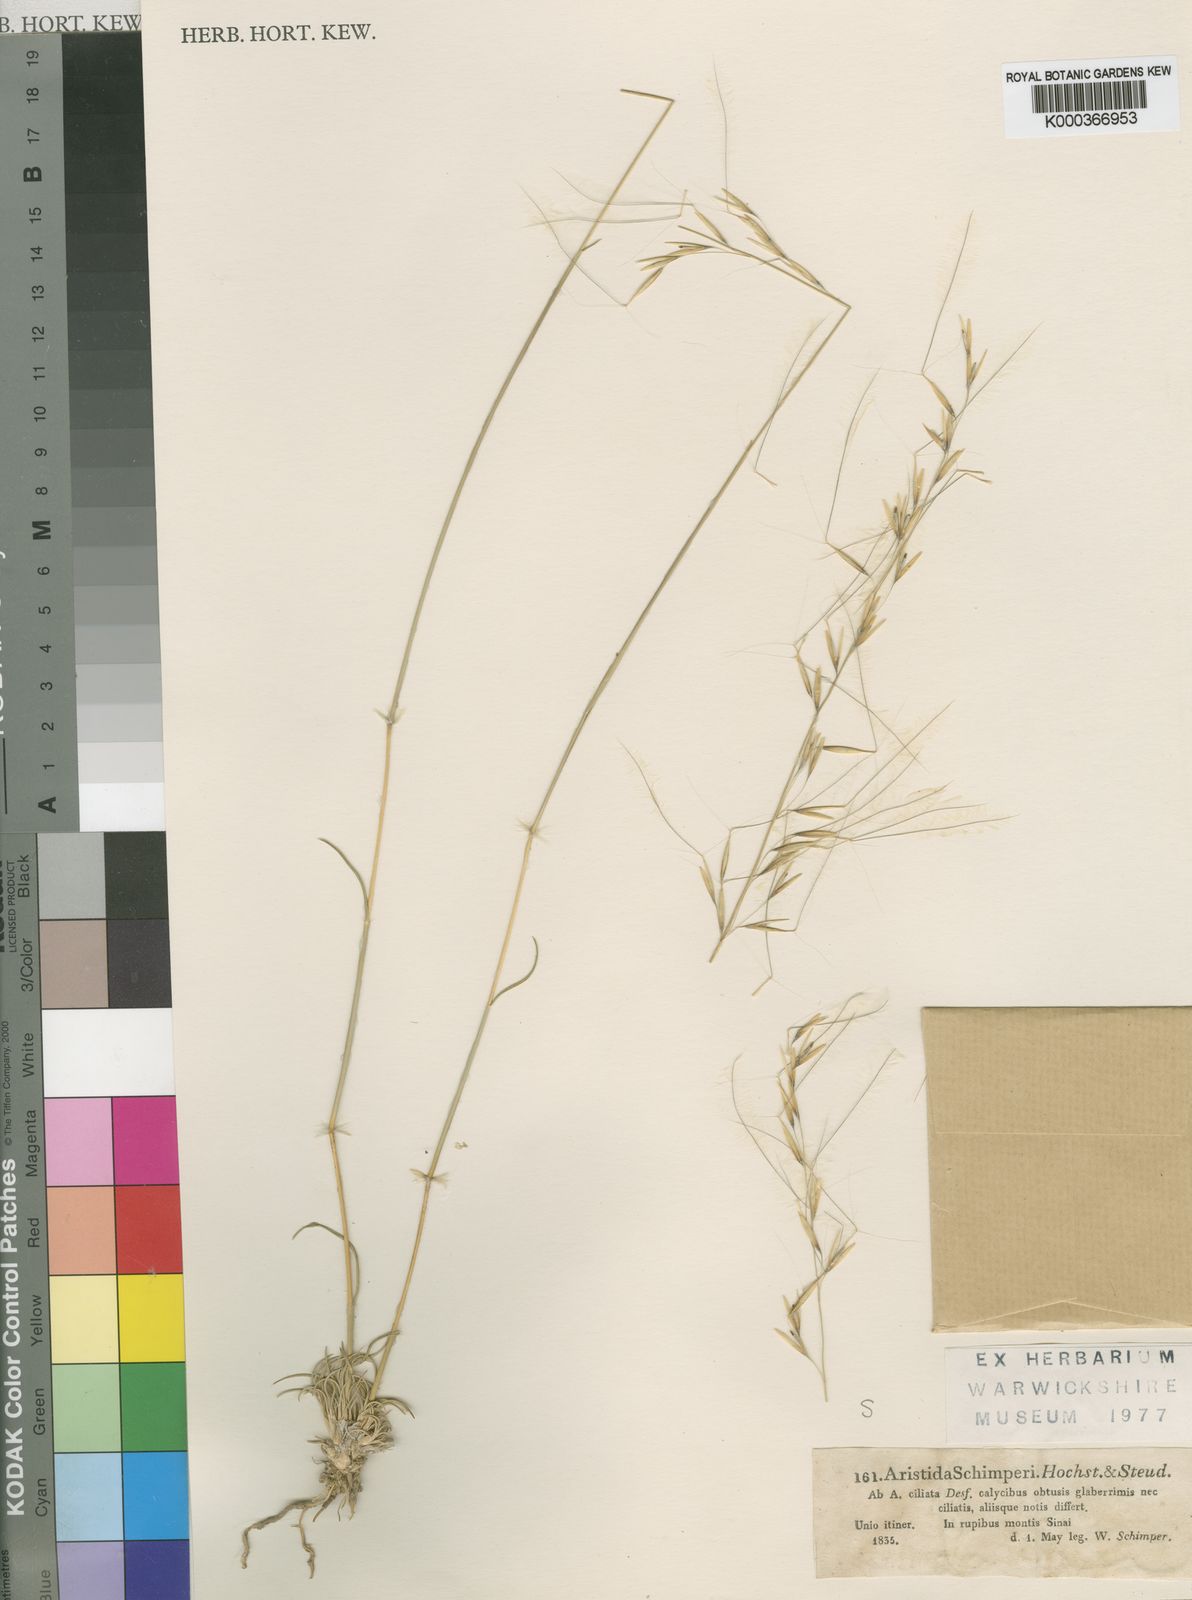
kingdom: Plantae
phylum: Tracheophyta
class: Liliopsida
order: Poales
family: Poaceae
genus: Stipagrostis
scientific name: Stipagrostis ciliata
